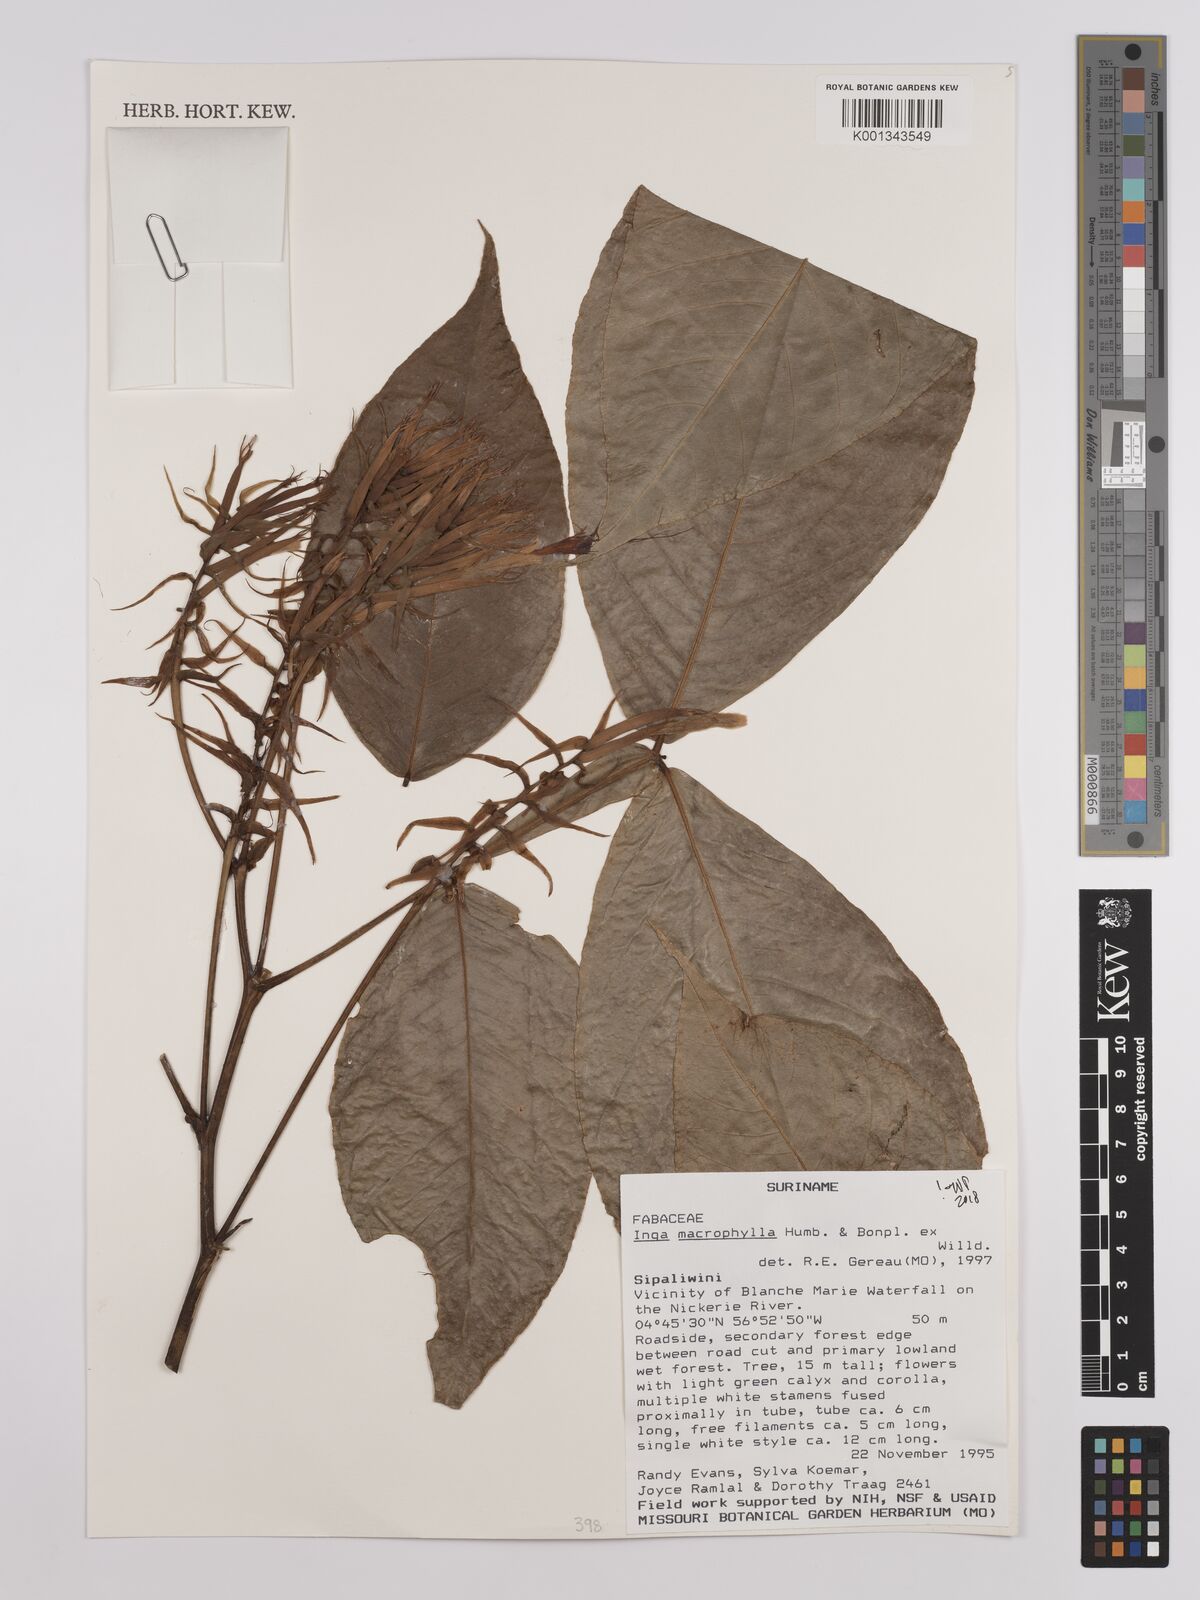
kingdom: Plantae
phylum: Tracheophyta
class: Magnoliopsida
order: Fabales
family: Fabaceae
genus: Inga
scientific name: Inga
